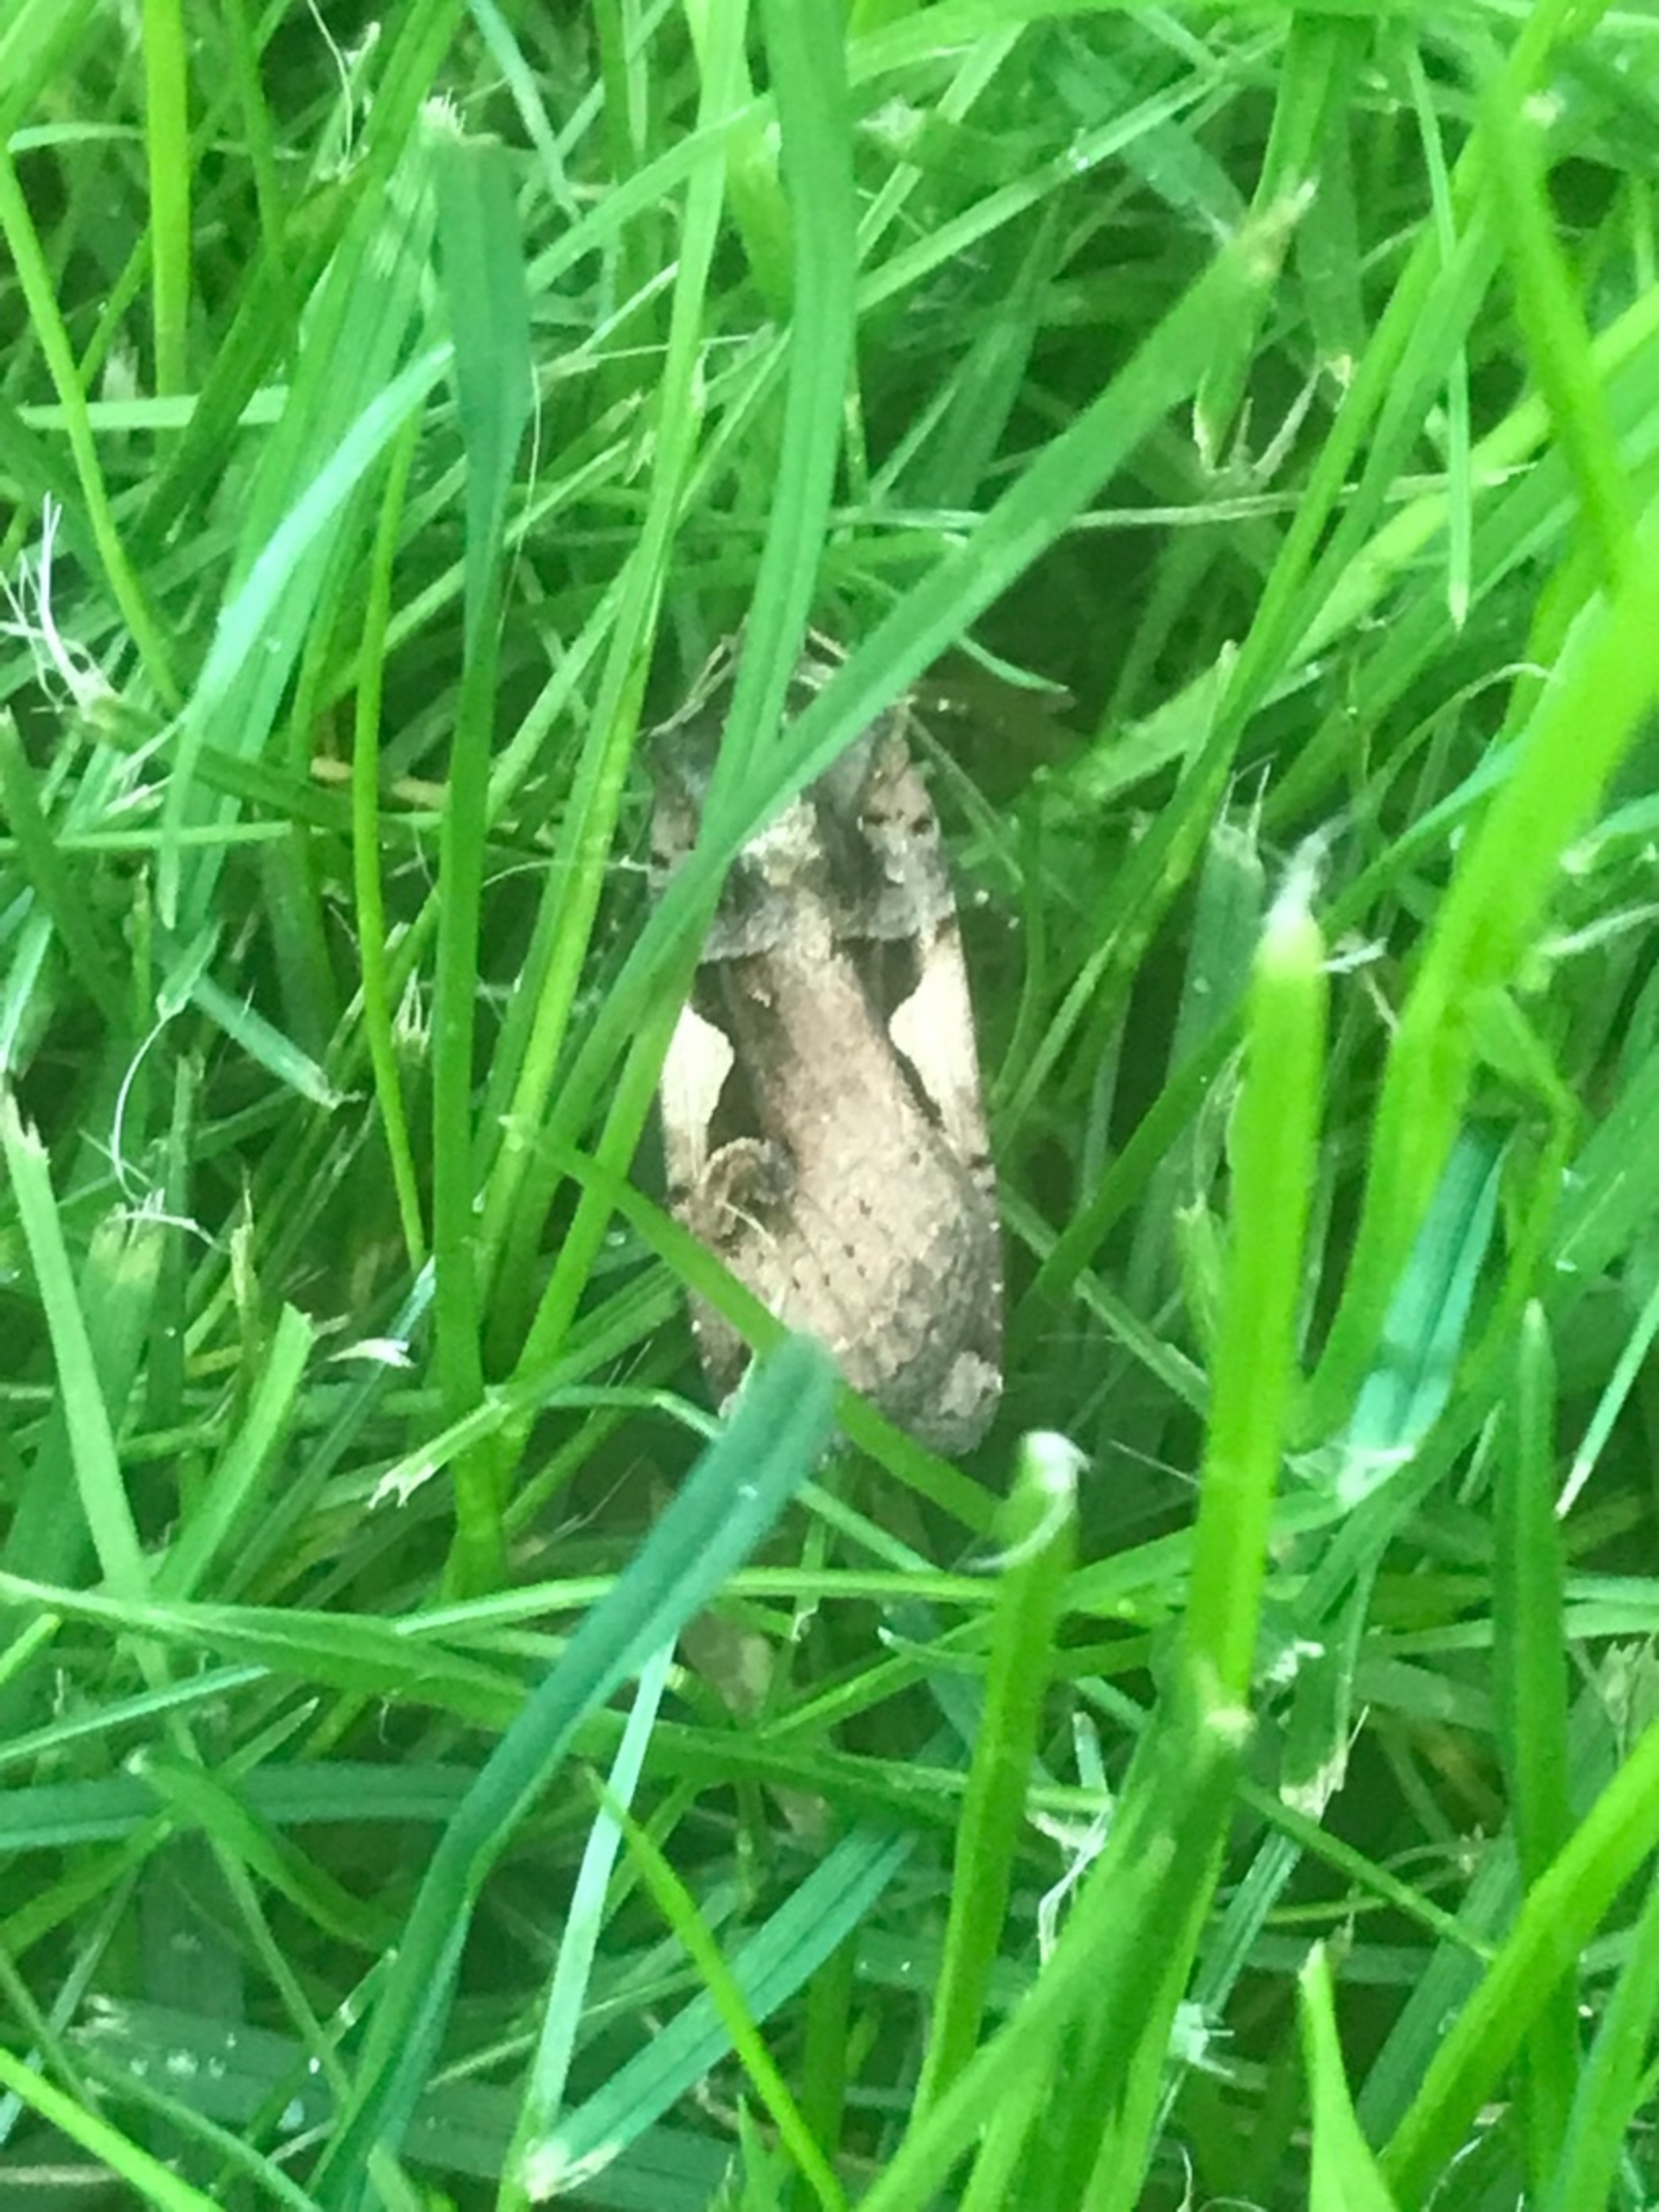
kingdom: Animalia
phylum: Arthropoda
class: Insecta
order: Lepidoptera
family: Noctuidae
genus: Xestia
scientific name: Xestia c-nigrum
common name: Det sorte c
